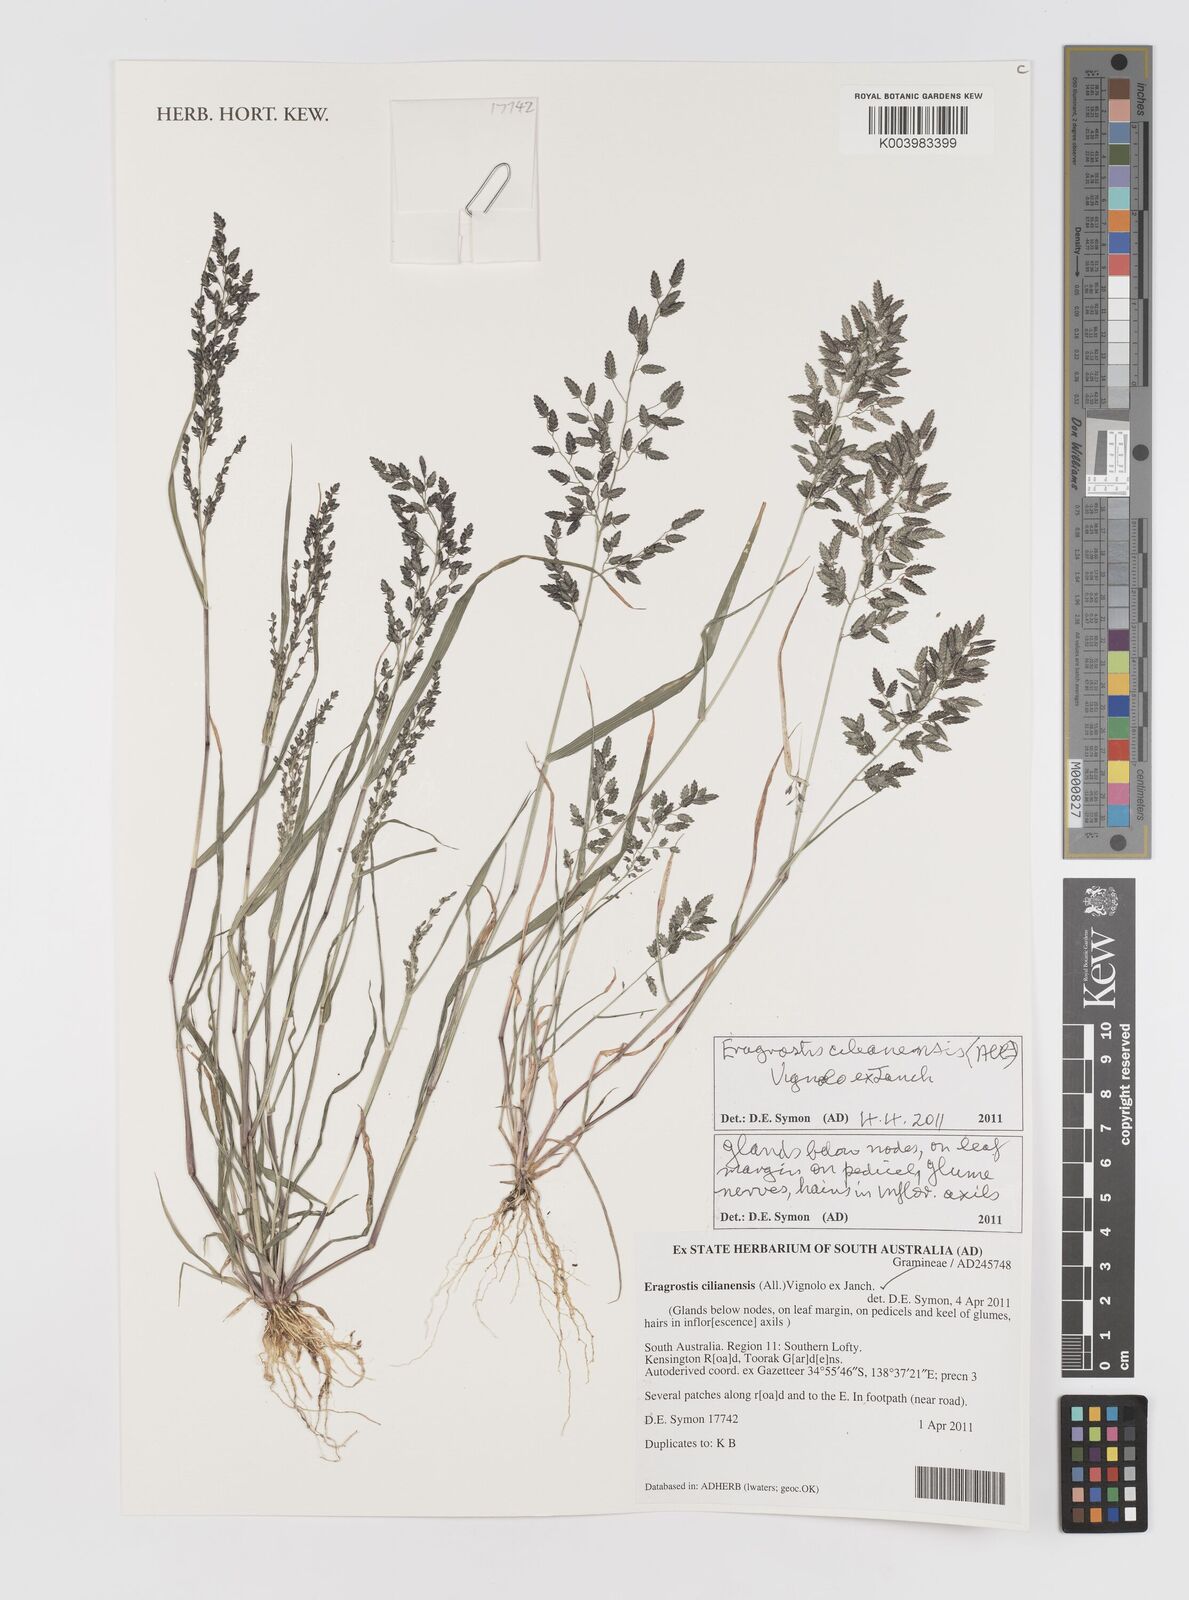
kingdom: Plantae
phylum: Tracheophyta
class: Liliopsida
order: Poales
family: Poaceae
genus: Eragrostis
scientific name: Eragrostis cilianensis
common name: Stinkgrass
